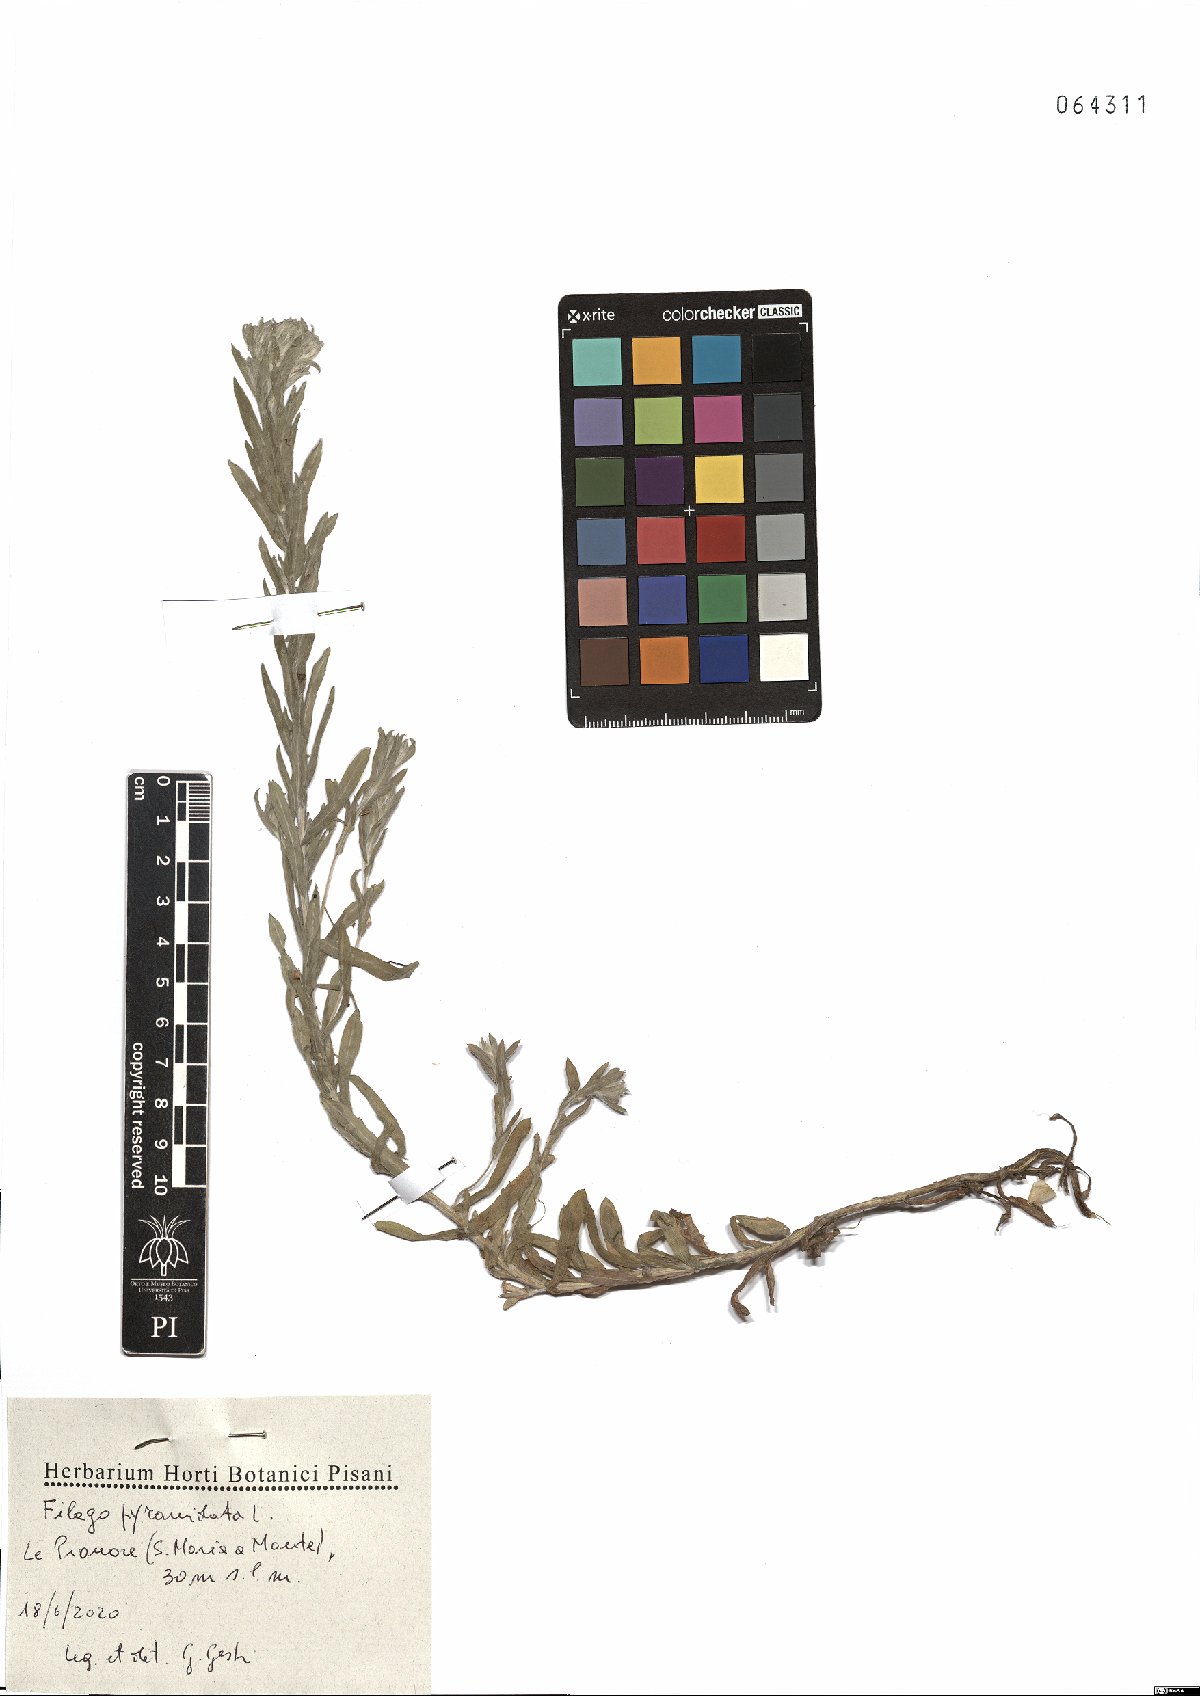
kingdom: Plantae
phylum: Tracheophyta
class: Magnoliopsida
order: Asterales
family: Asteraceae
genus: Filago
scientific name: Filago pyramidata
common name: Broad-leaved cudweed
